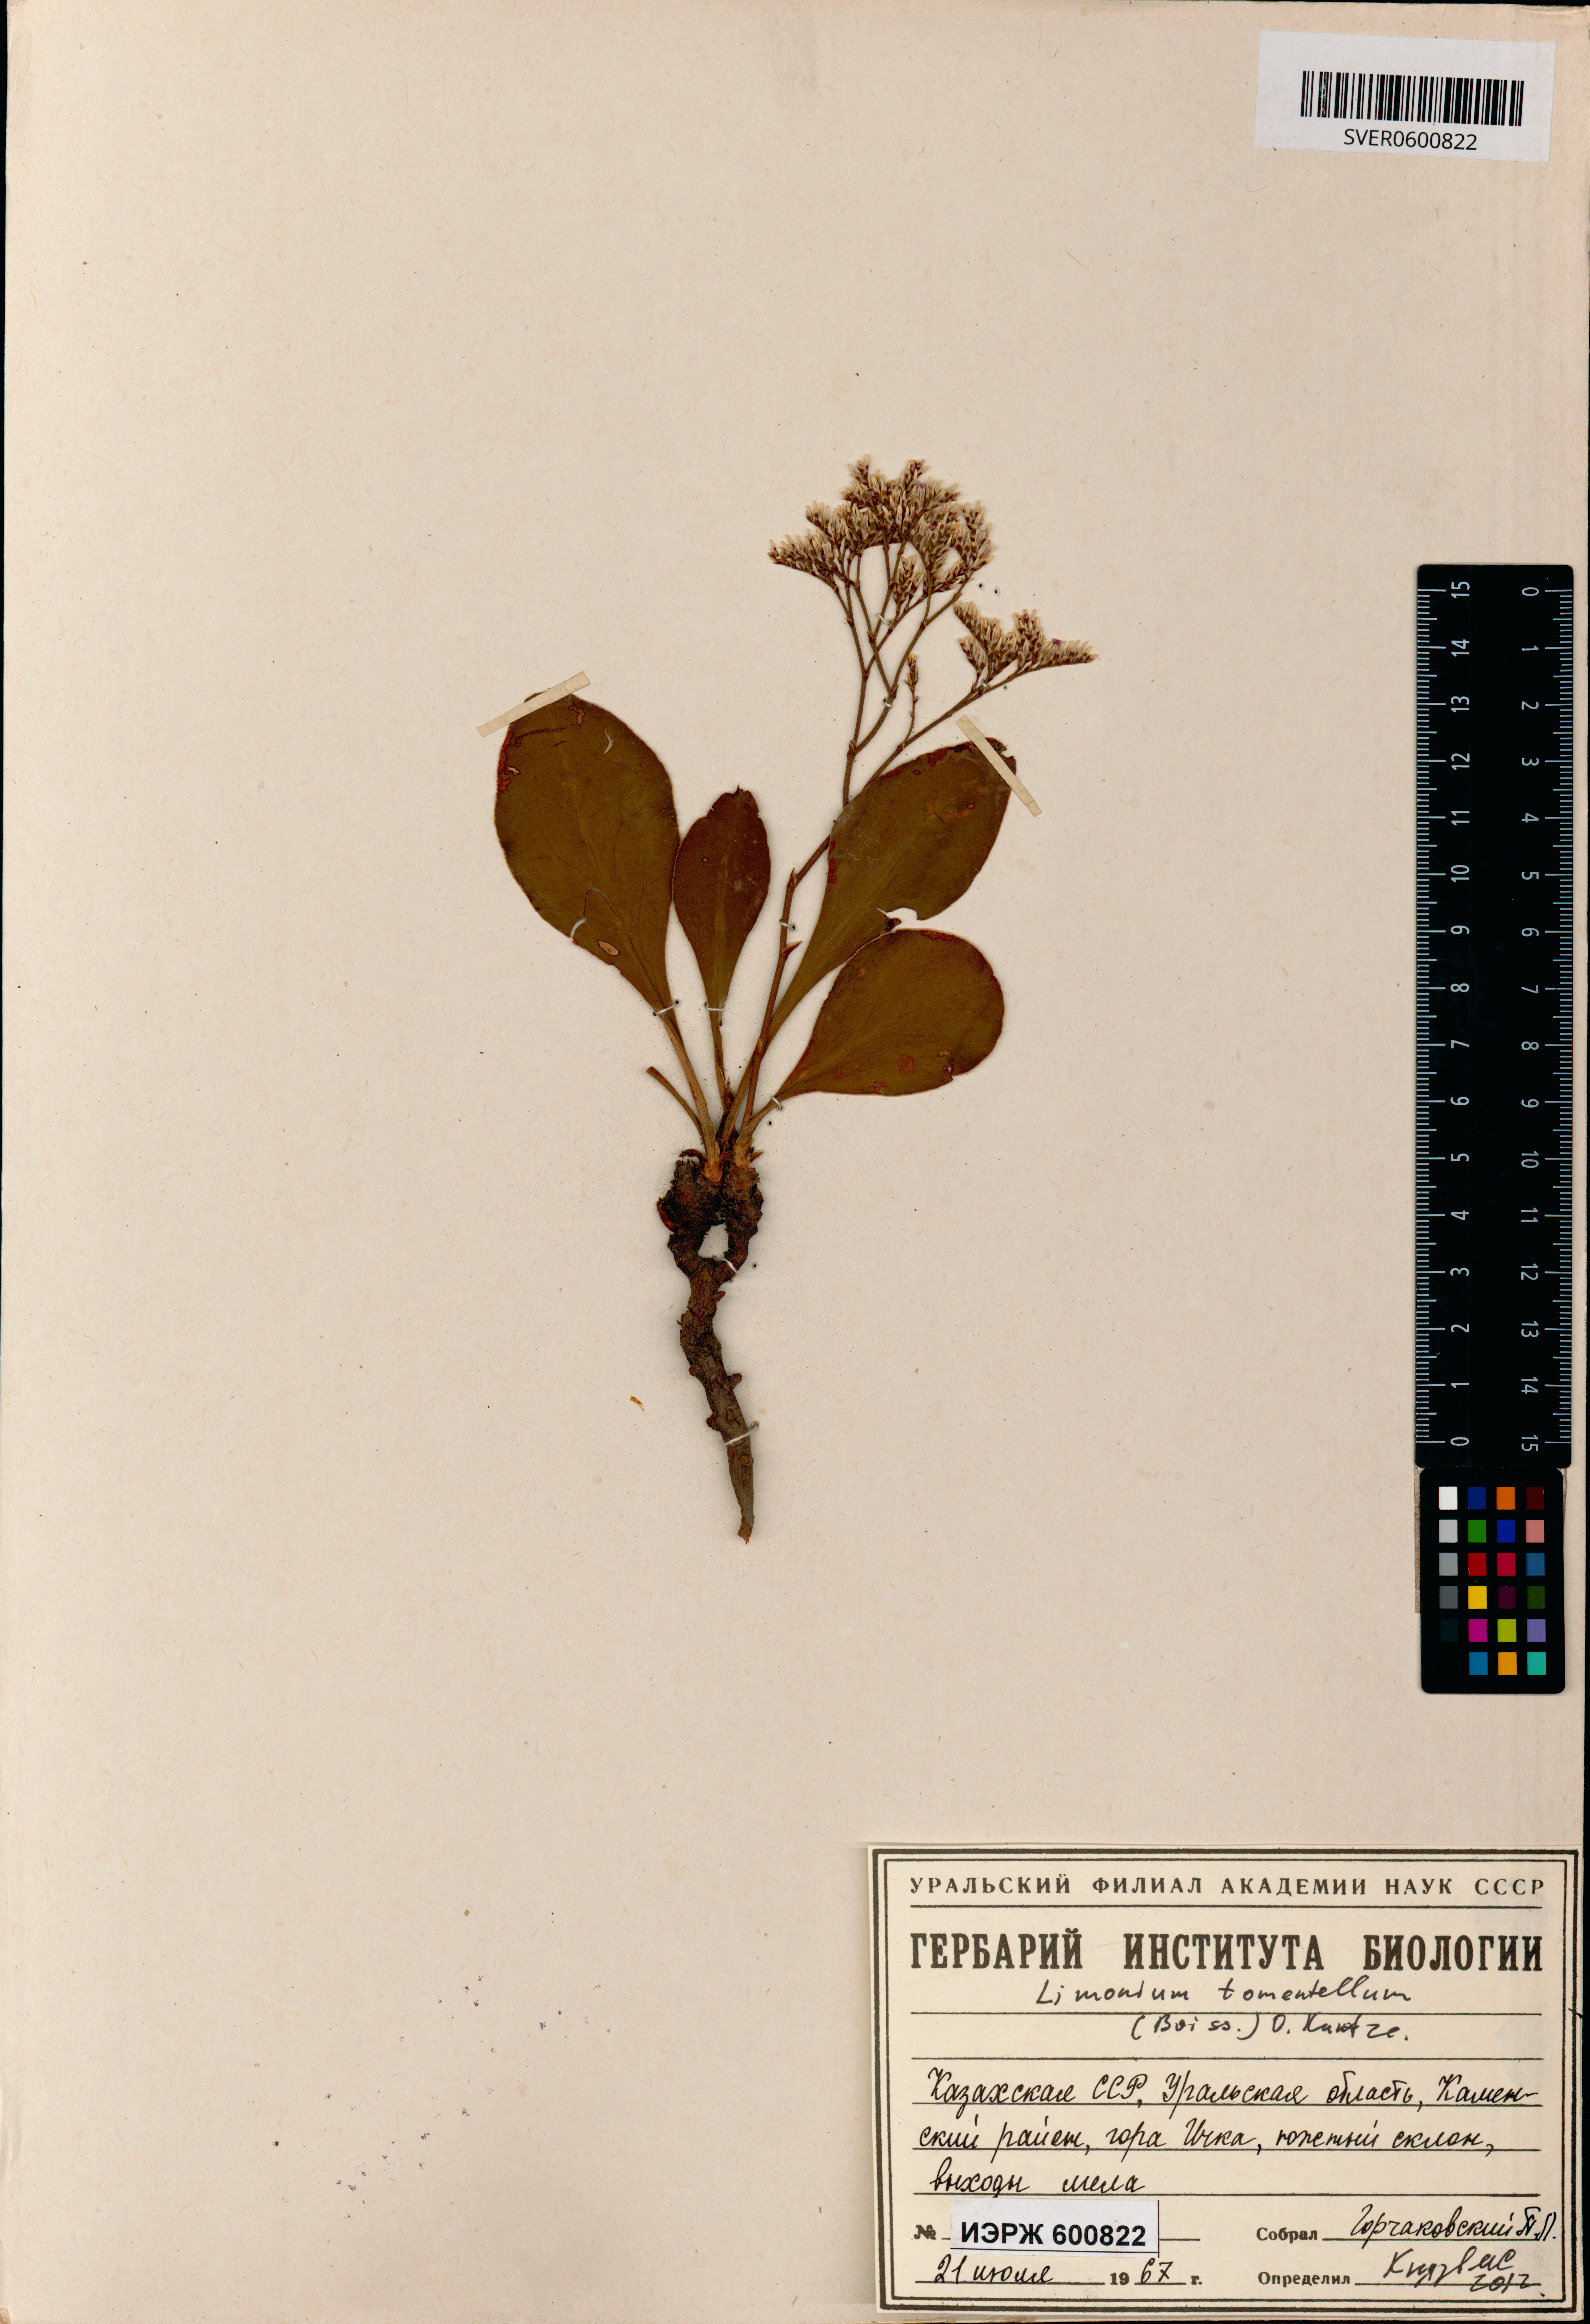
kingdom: Plantae
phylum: Tracheophyta
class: Magnoliopsida
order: Caryophyllales
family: Plumbaginaceae
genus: Limonium
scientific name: Limonium tomentellum
